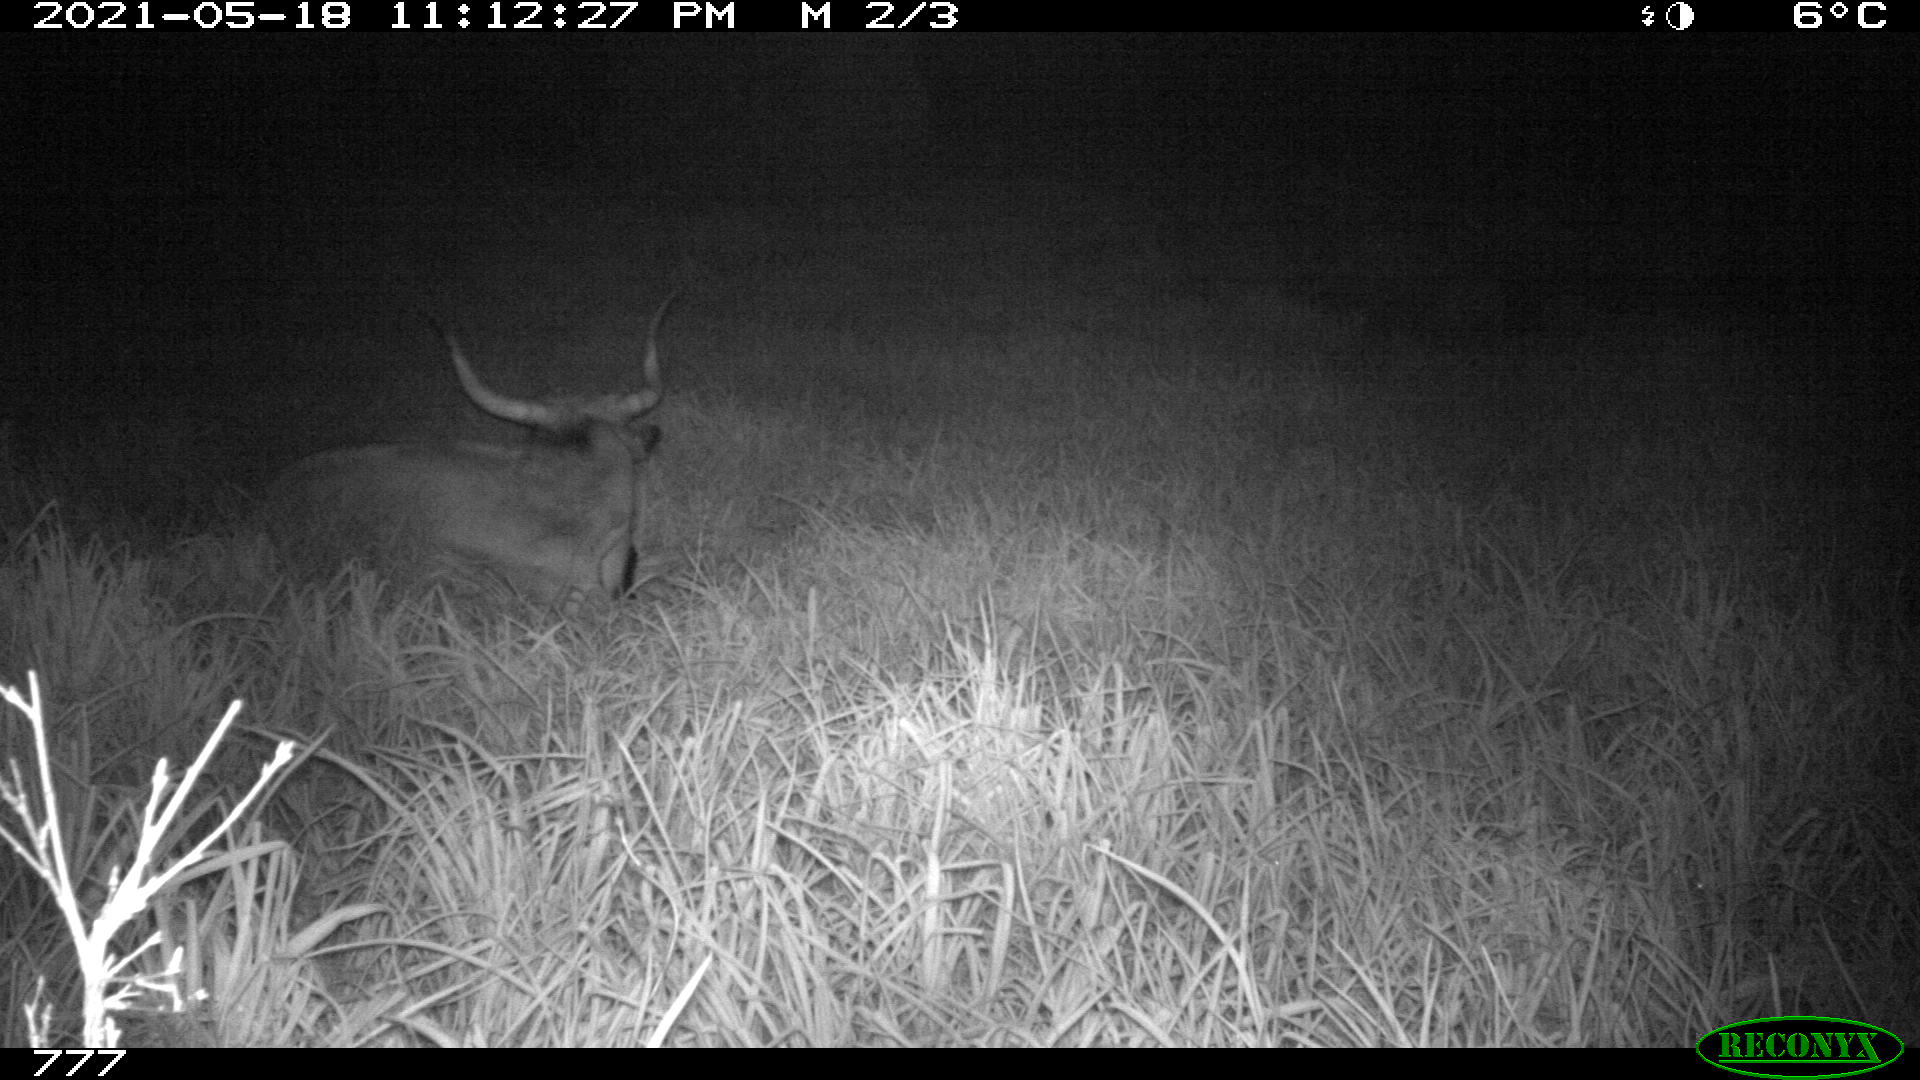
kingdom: Animalia
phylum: Chordata
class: Mammalia
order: Artiodactyla
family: Bovidae
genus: Bos
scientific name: Bos taurus
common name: Domesticated cattle
